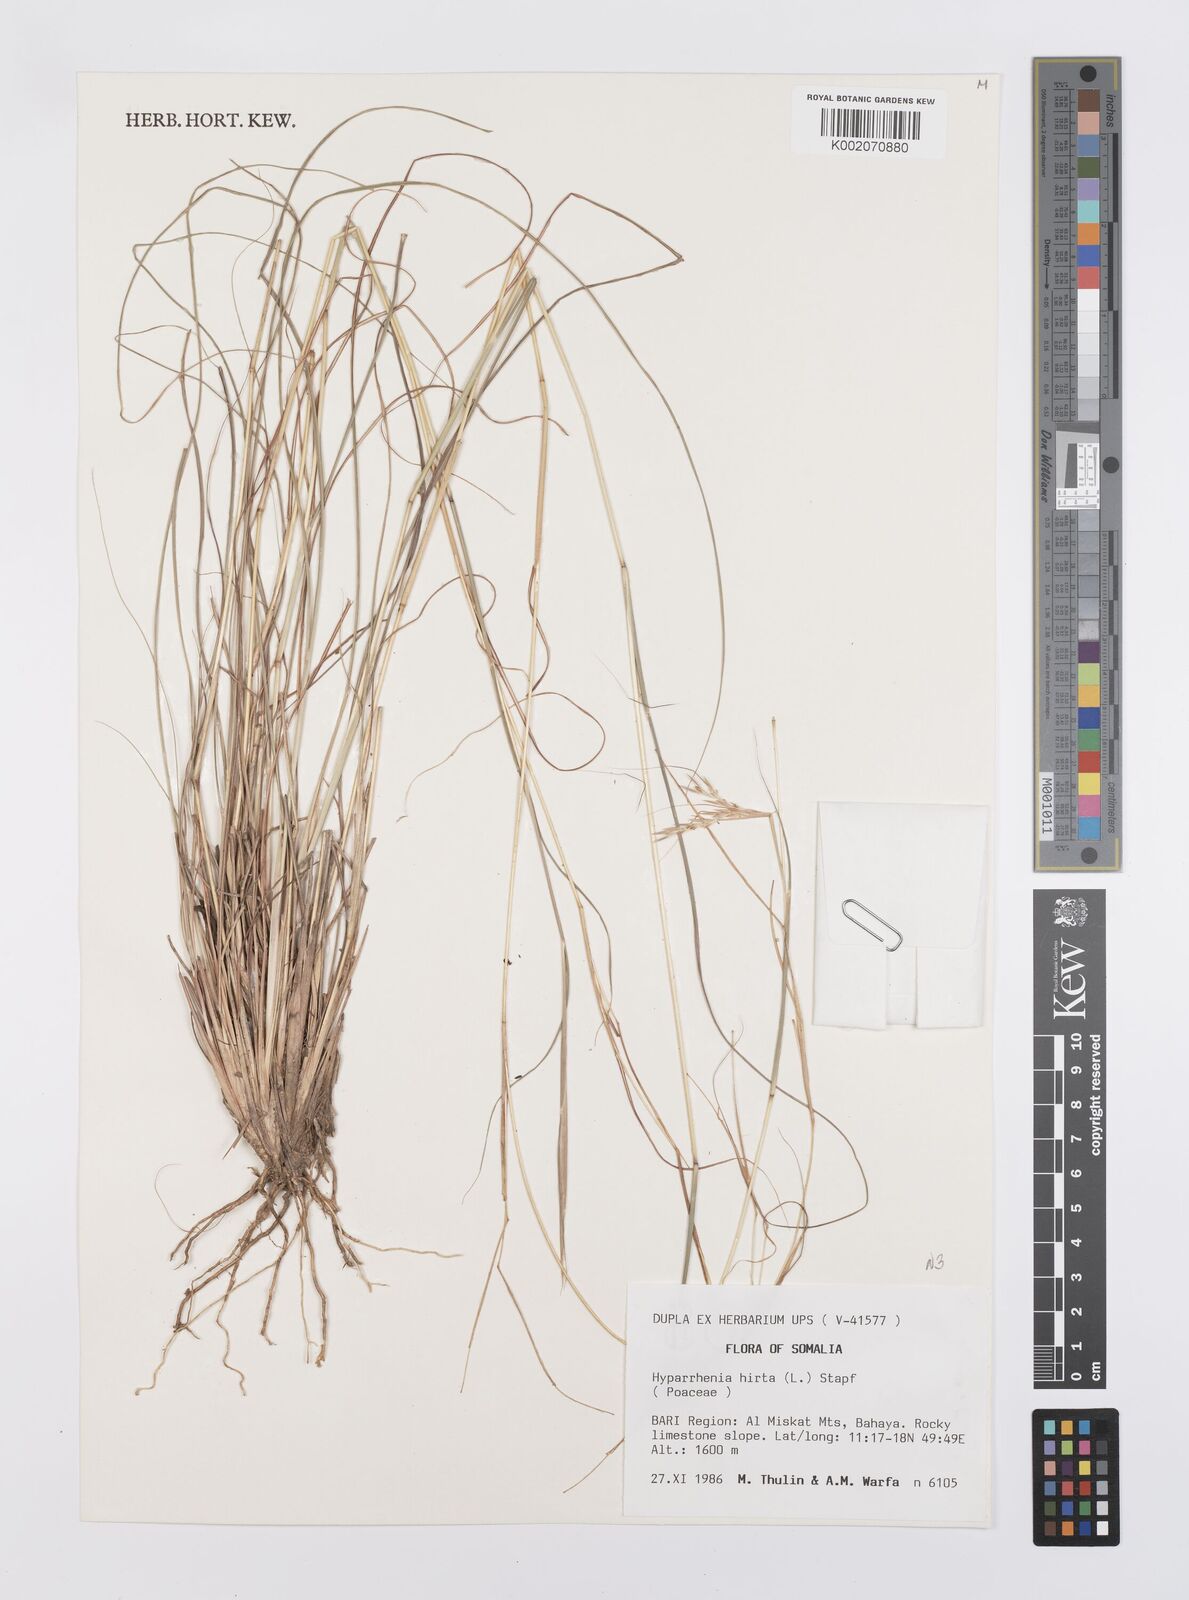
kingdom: Plantae
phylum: Tracheophyta
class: Liliopsida
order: Poales
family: Poaceae
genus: Hyparrhenia
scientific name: Hyparrhenia hirta
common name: Thatching grass
